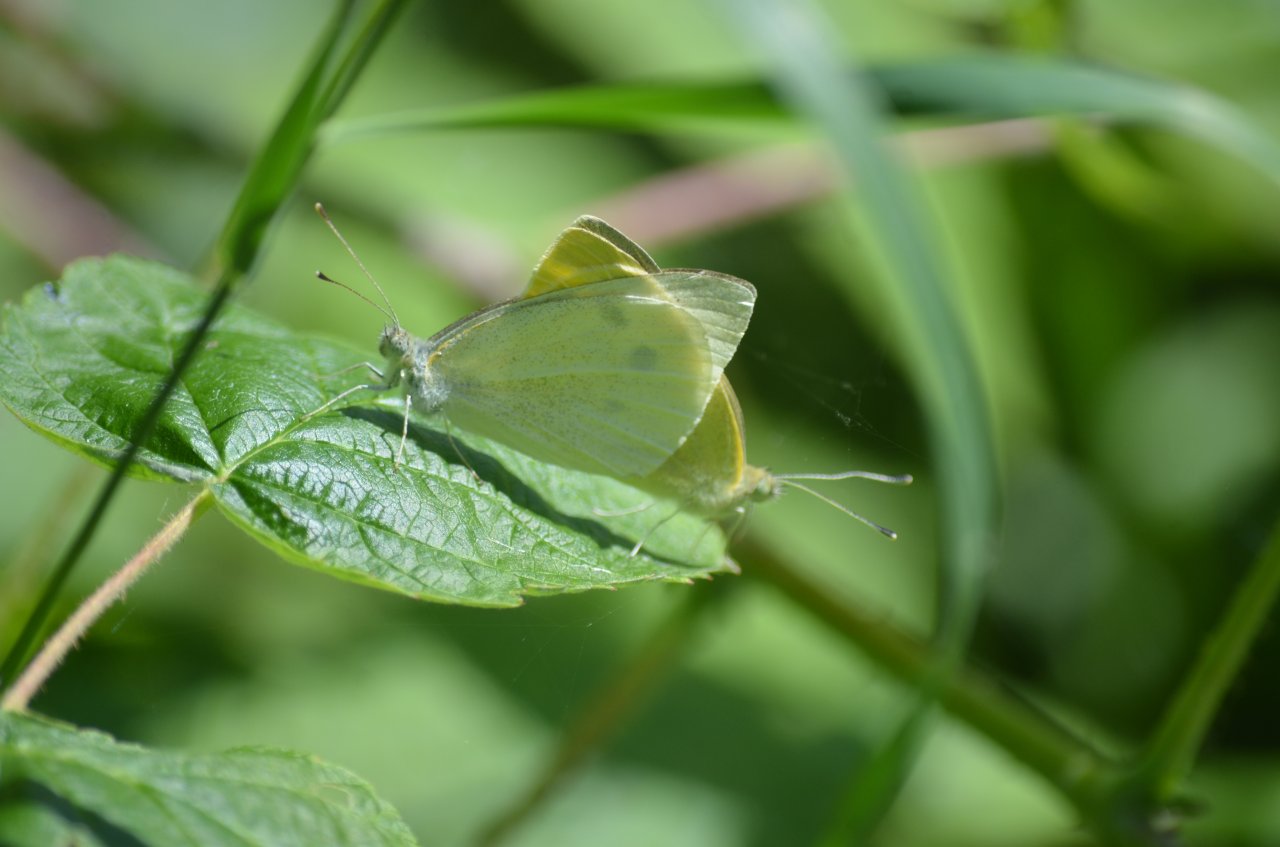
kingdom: Animalia
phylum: Arthropoda
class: Insecta
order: Lepidoptera
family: Pieridae
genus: Pieris
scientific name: Pieris rapae
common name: Cabbage White
